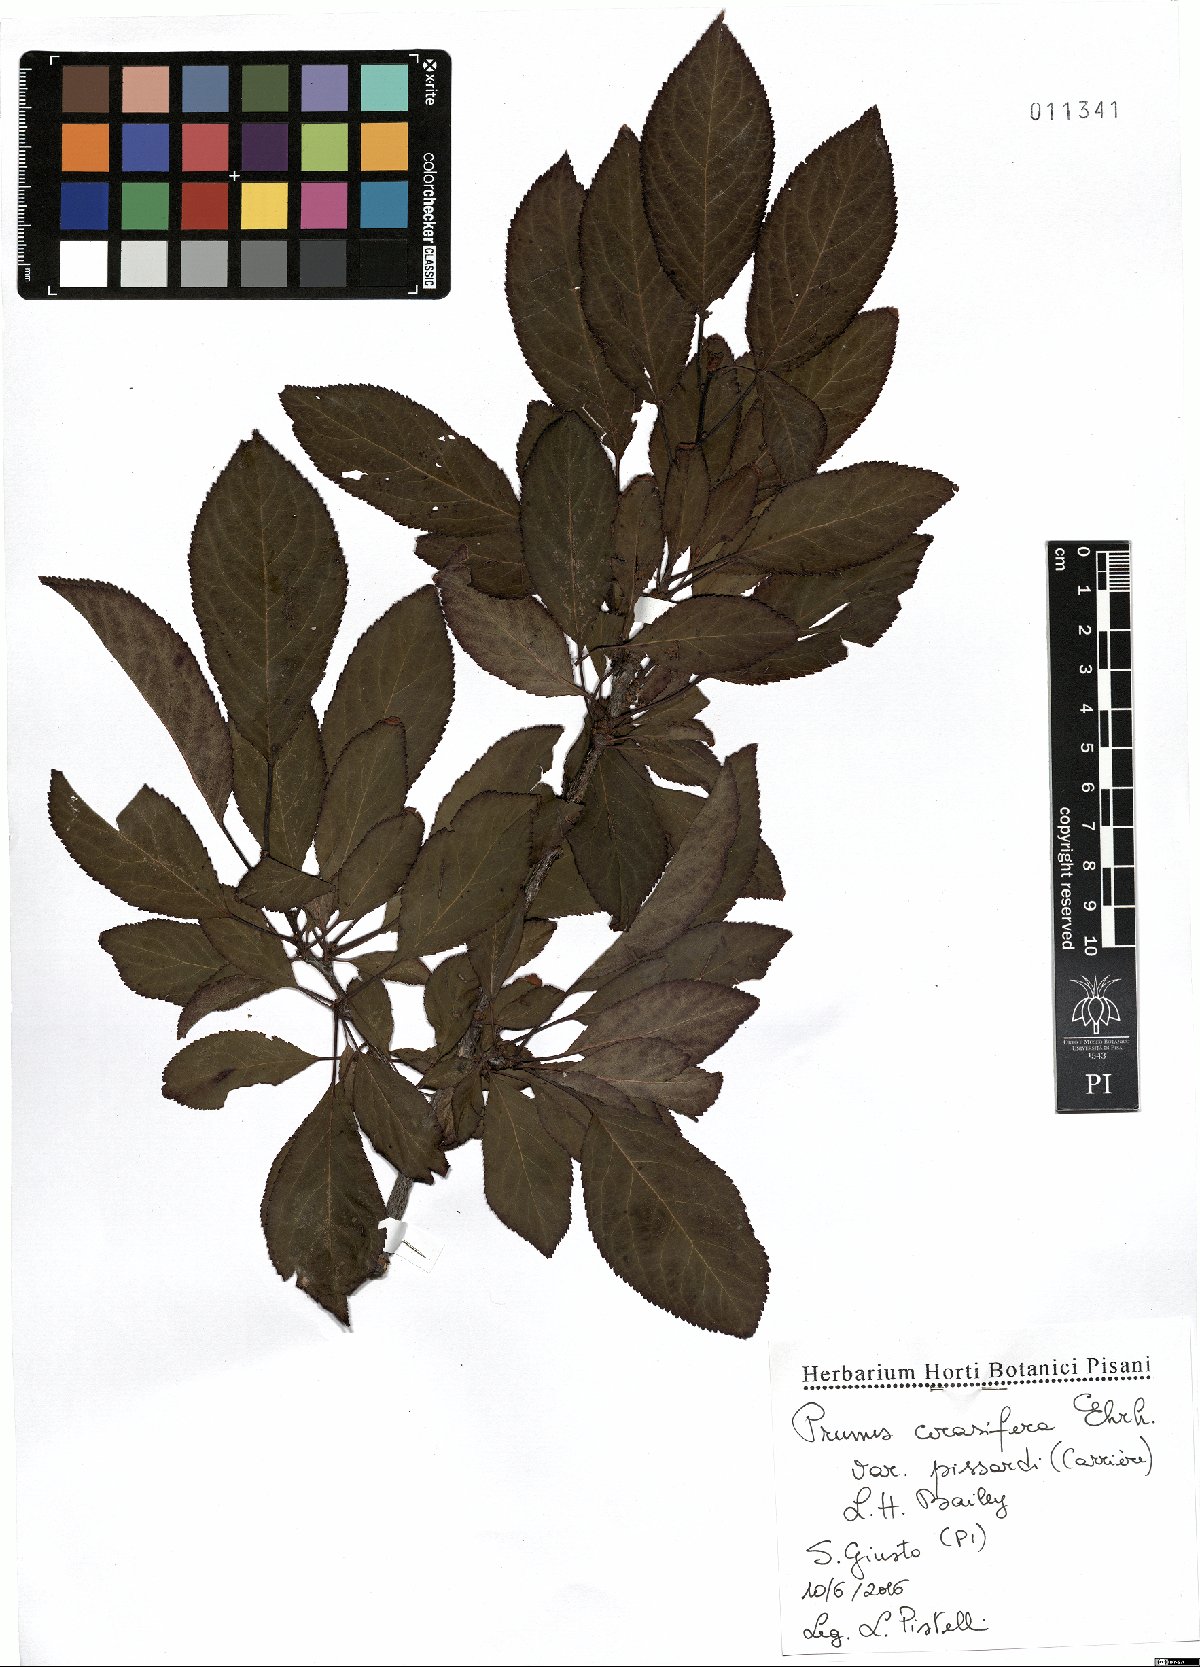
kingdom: Plantae
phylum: Tracheophyta
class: Magnoliopsida
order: Rosales
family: Rosaceae
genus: Prunus
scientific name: Prunus cerasifera
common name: Cherry plum
